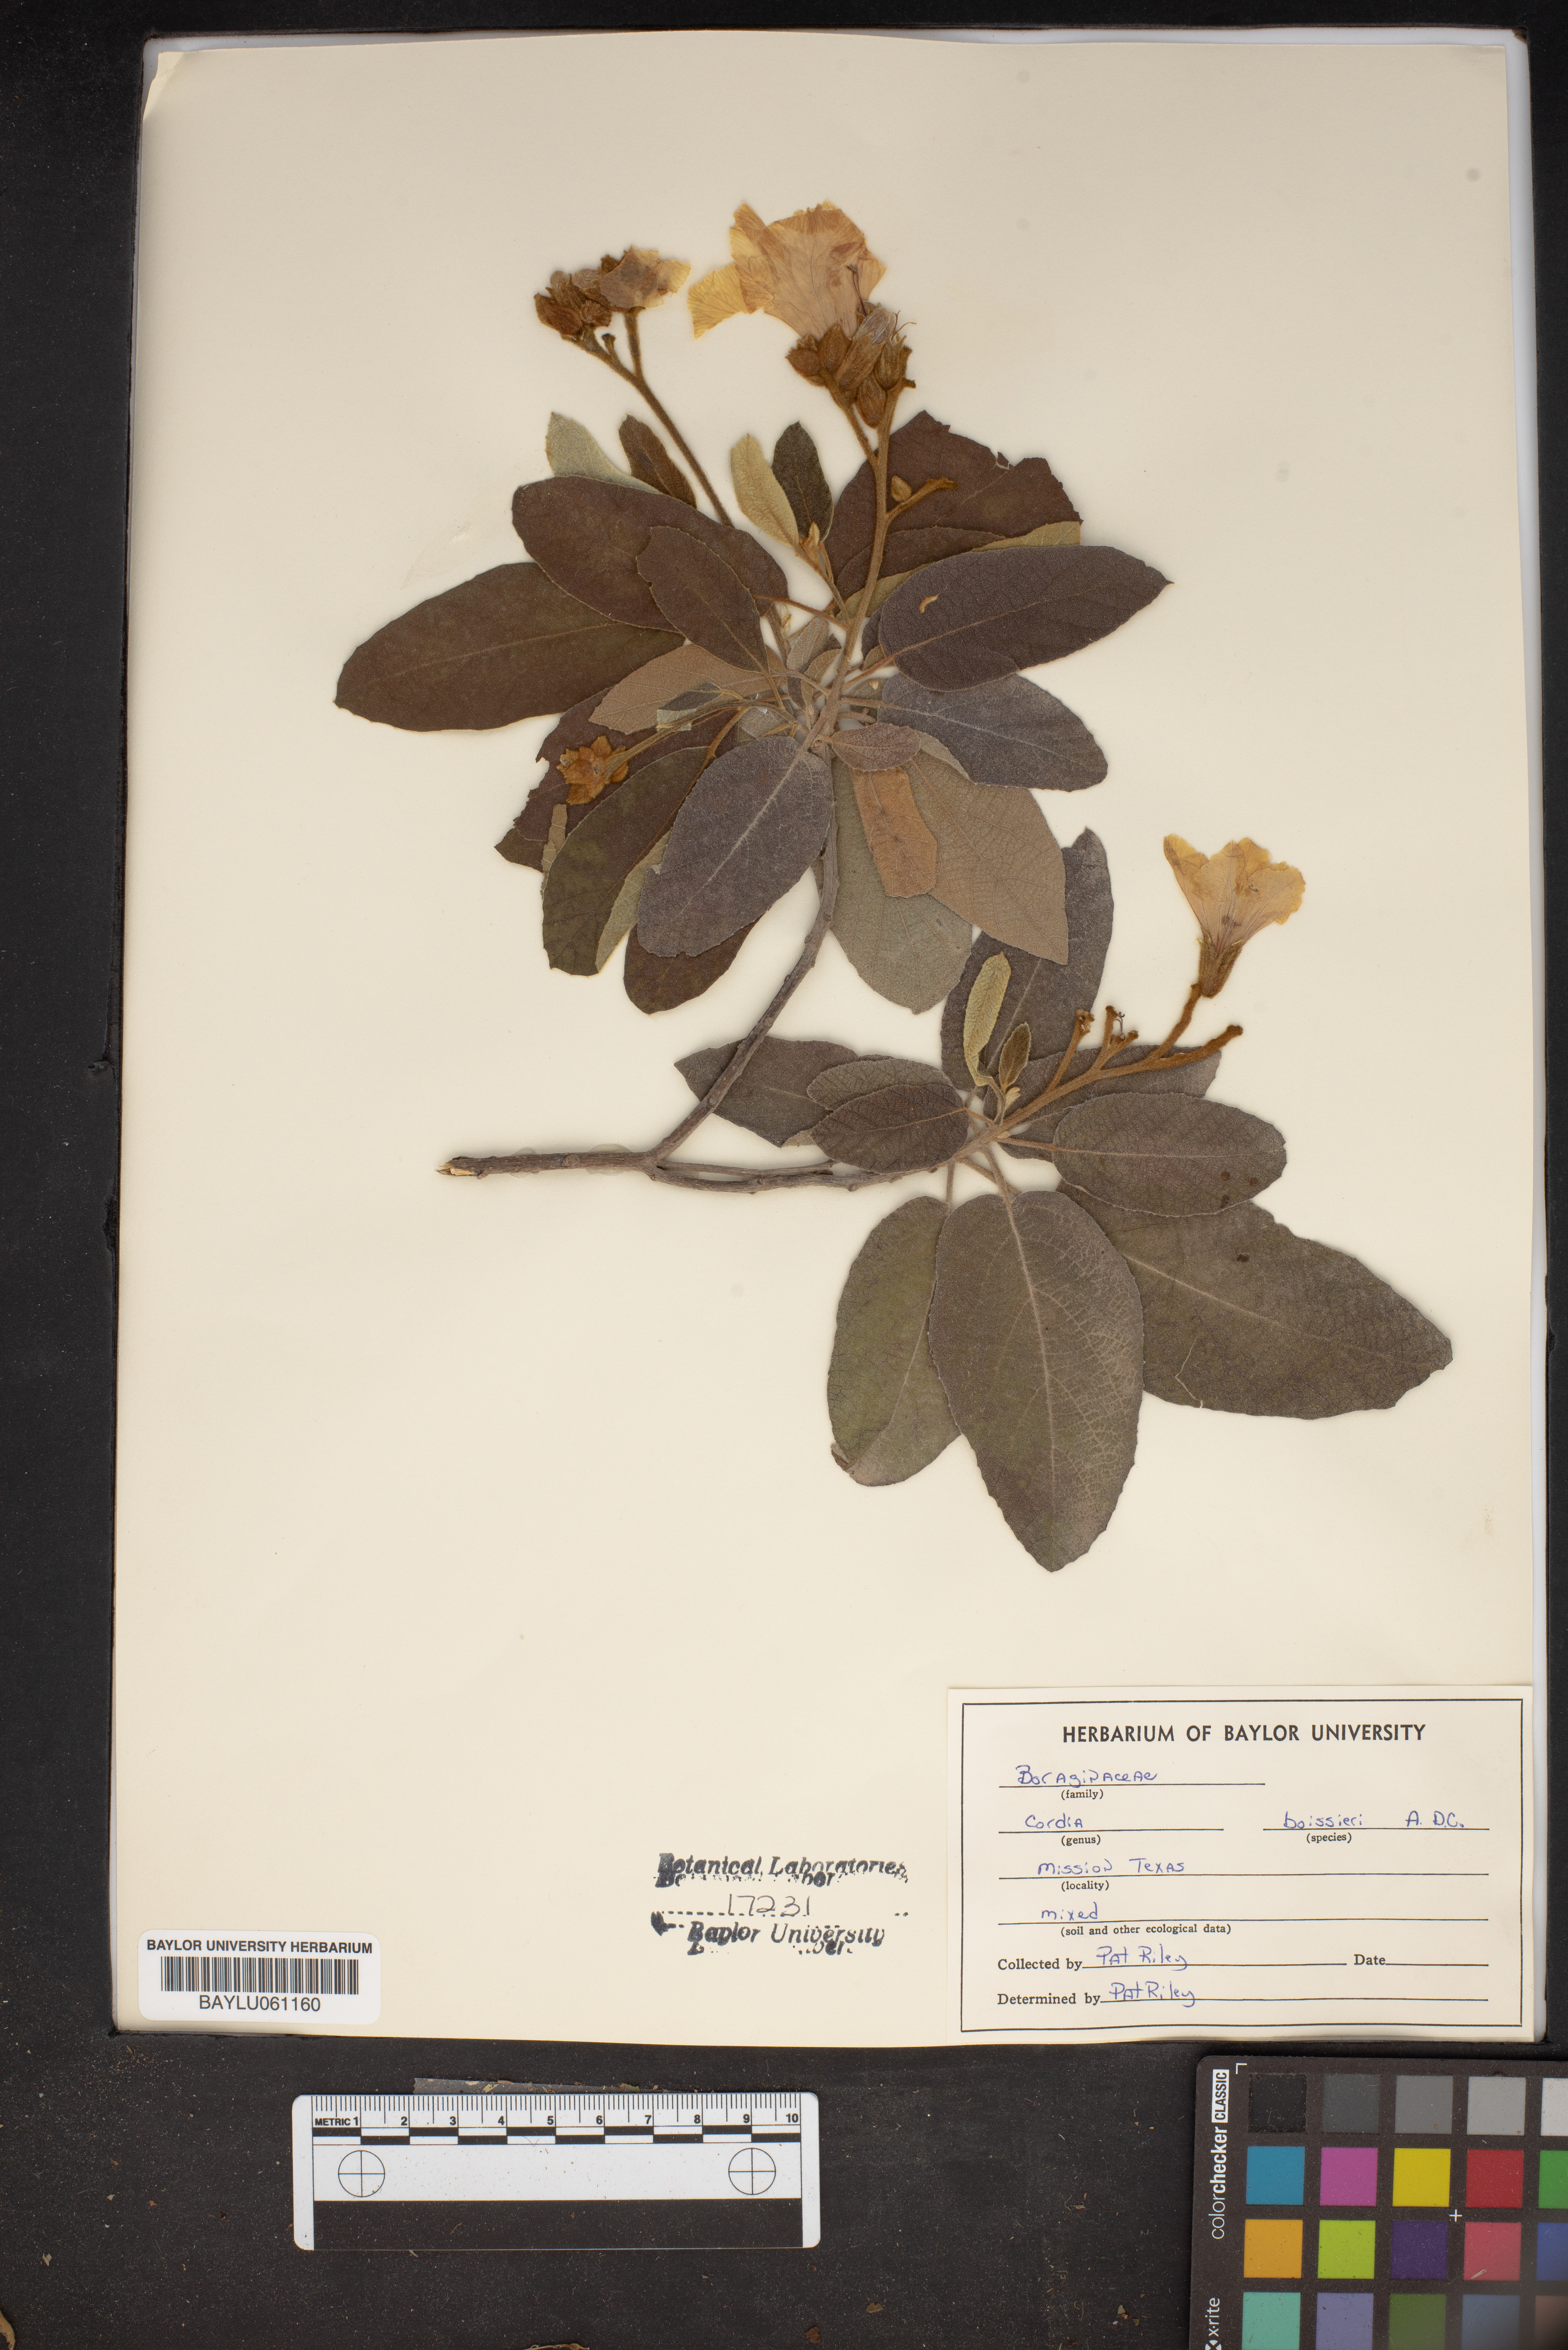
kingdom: Plantae
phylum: Tracheophyta
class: Magnoliopsida
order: Boraginales
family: Cordiaceae
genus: Cordia
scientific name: Cordia boissieri
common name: Mexican-olive
